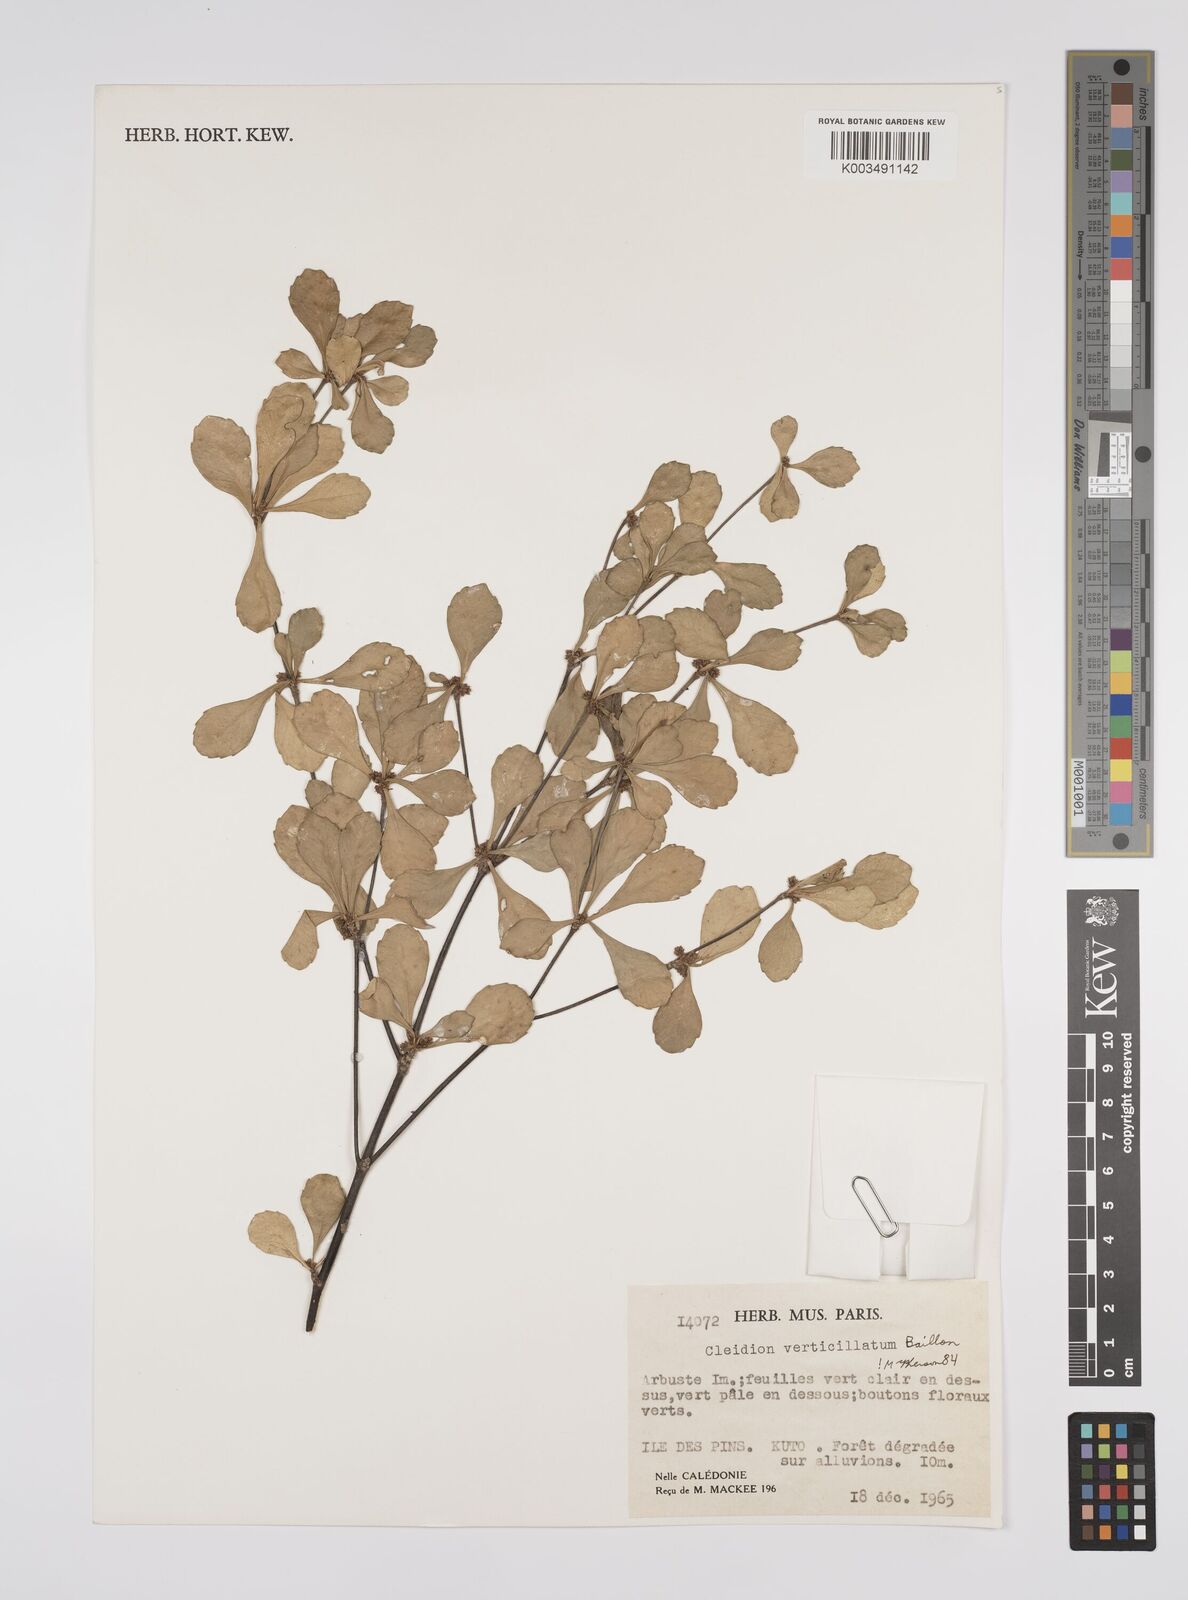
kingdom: Plantae
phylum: Tracheophyta
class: Magnoliopsida
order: Malpighiales
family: Euphorbiaceae
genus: Cleidion
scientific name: Cleidion verticillatum
